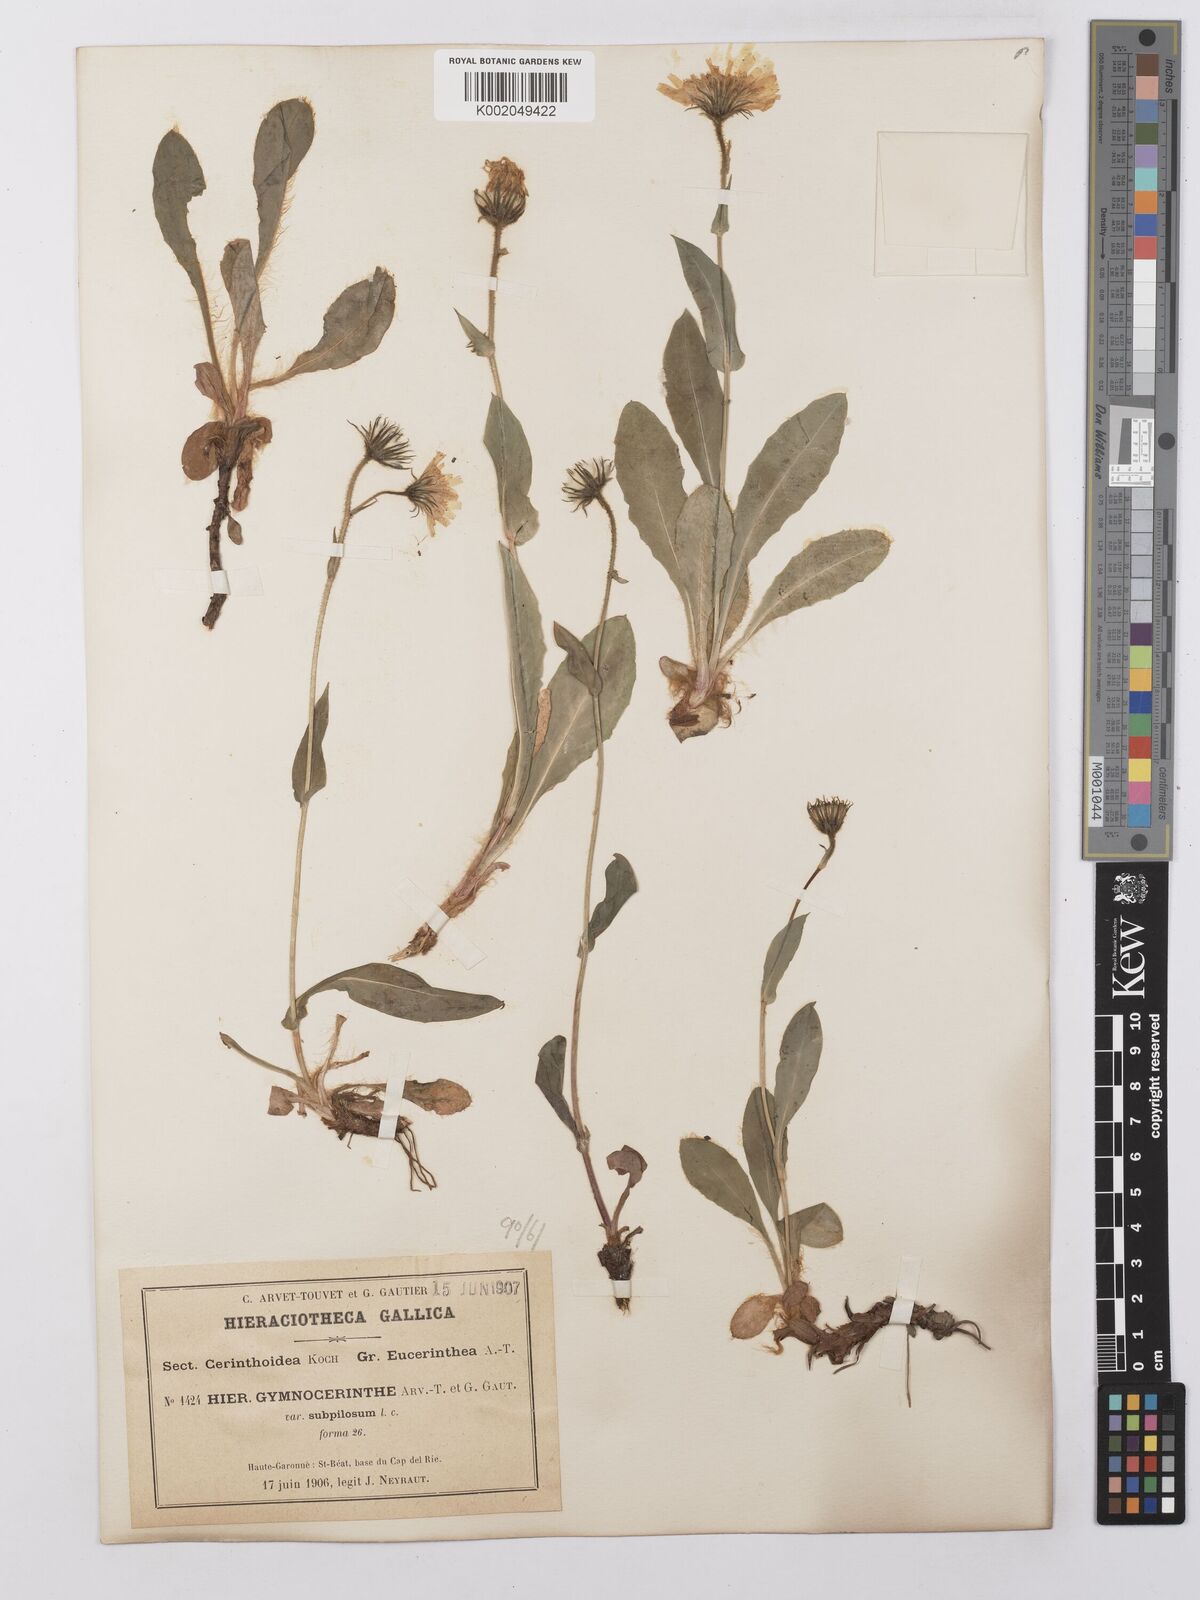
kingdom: Plantae
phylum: Tracheophyta
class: Magnoliopsida
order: Asterales
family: Asteraceae
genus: Hieracium
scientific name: Hieracium cerinthoides
